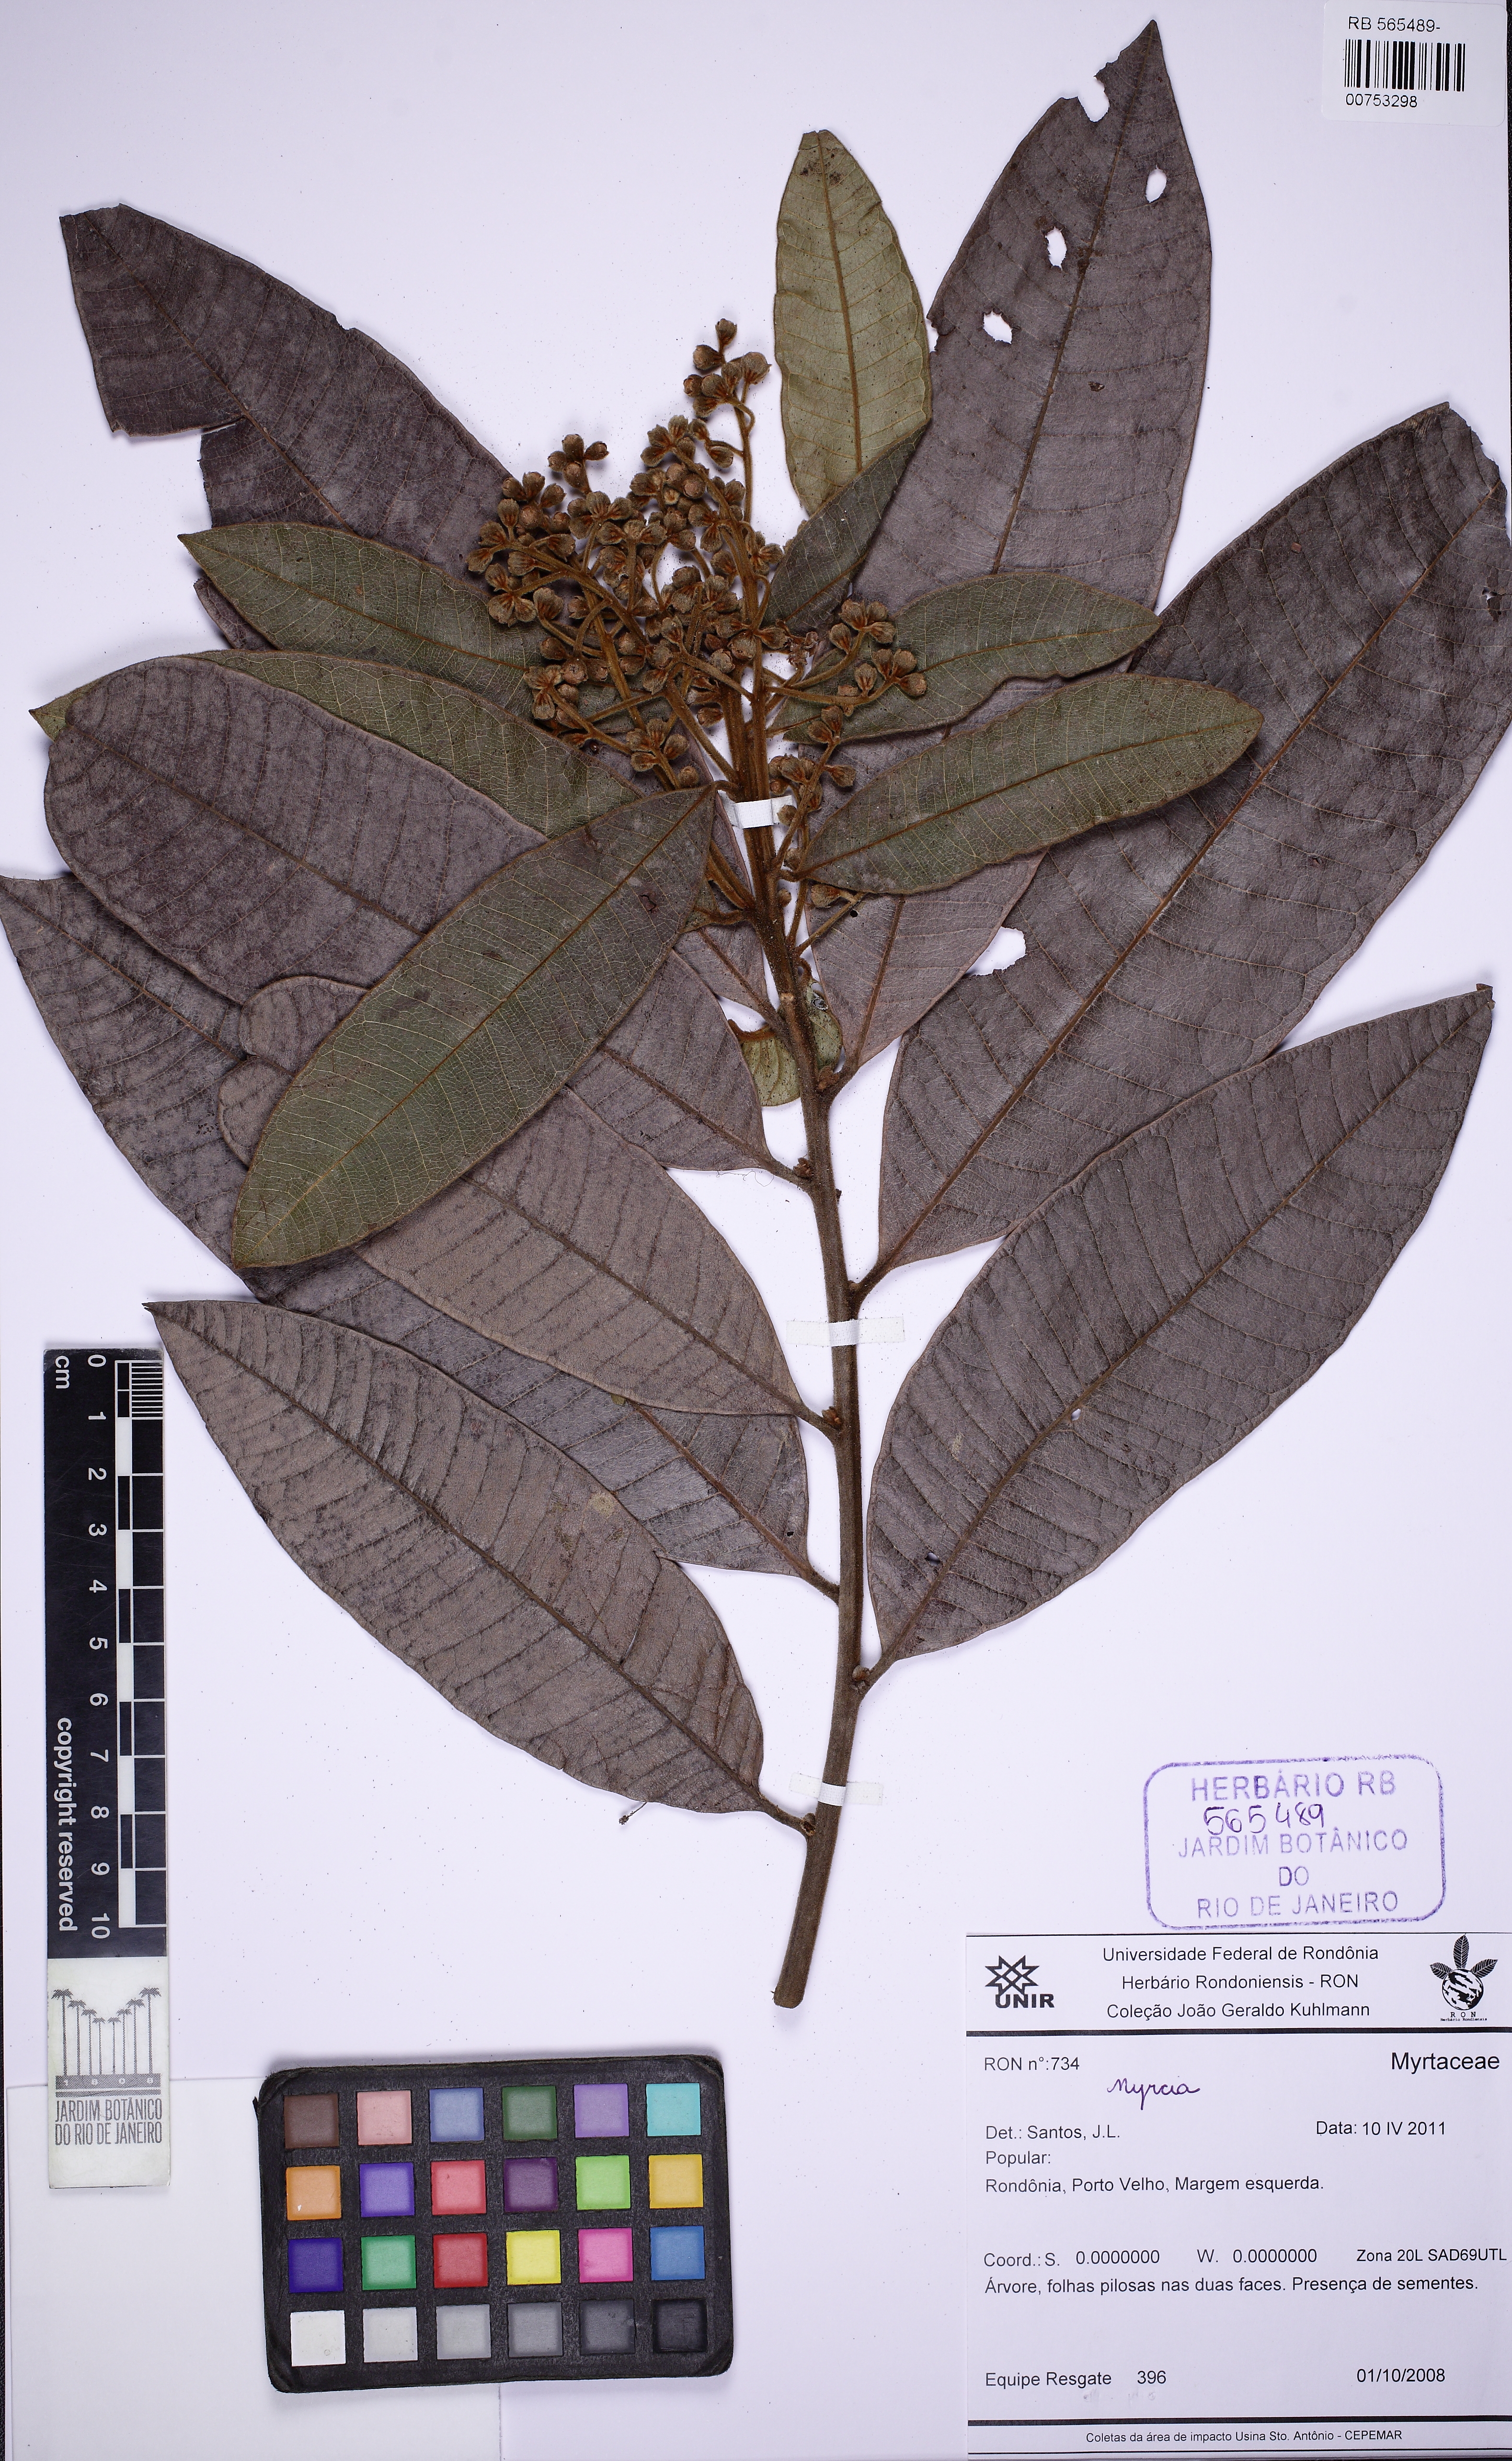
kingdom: Plantae
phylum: Tracheophyta
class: Magnoliopsida
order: Myrtales
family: Myrtaceae
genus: Myrcia
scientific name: Myrcia neovelutina
